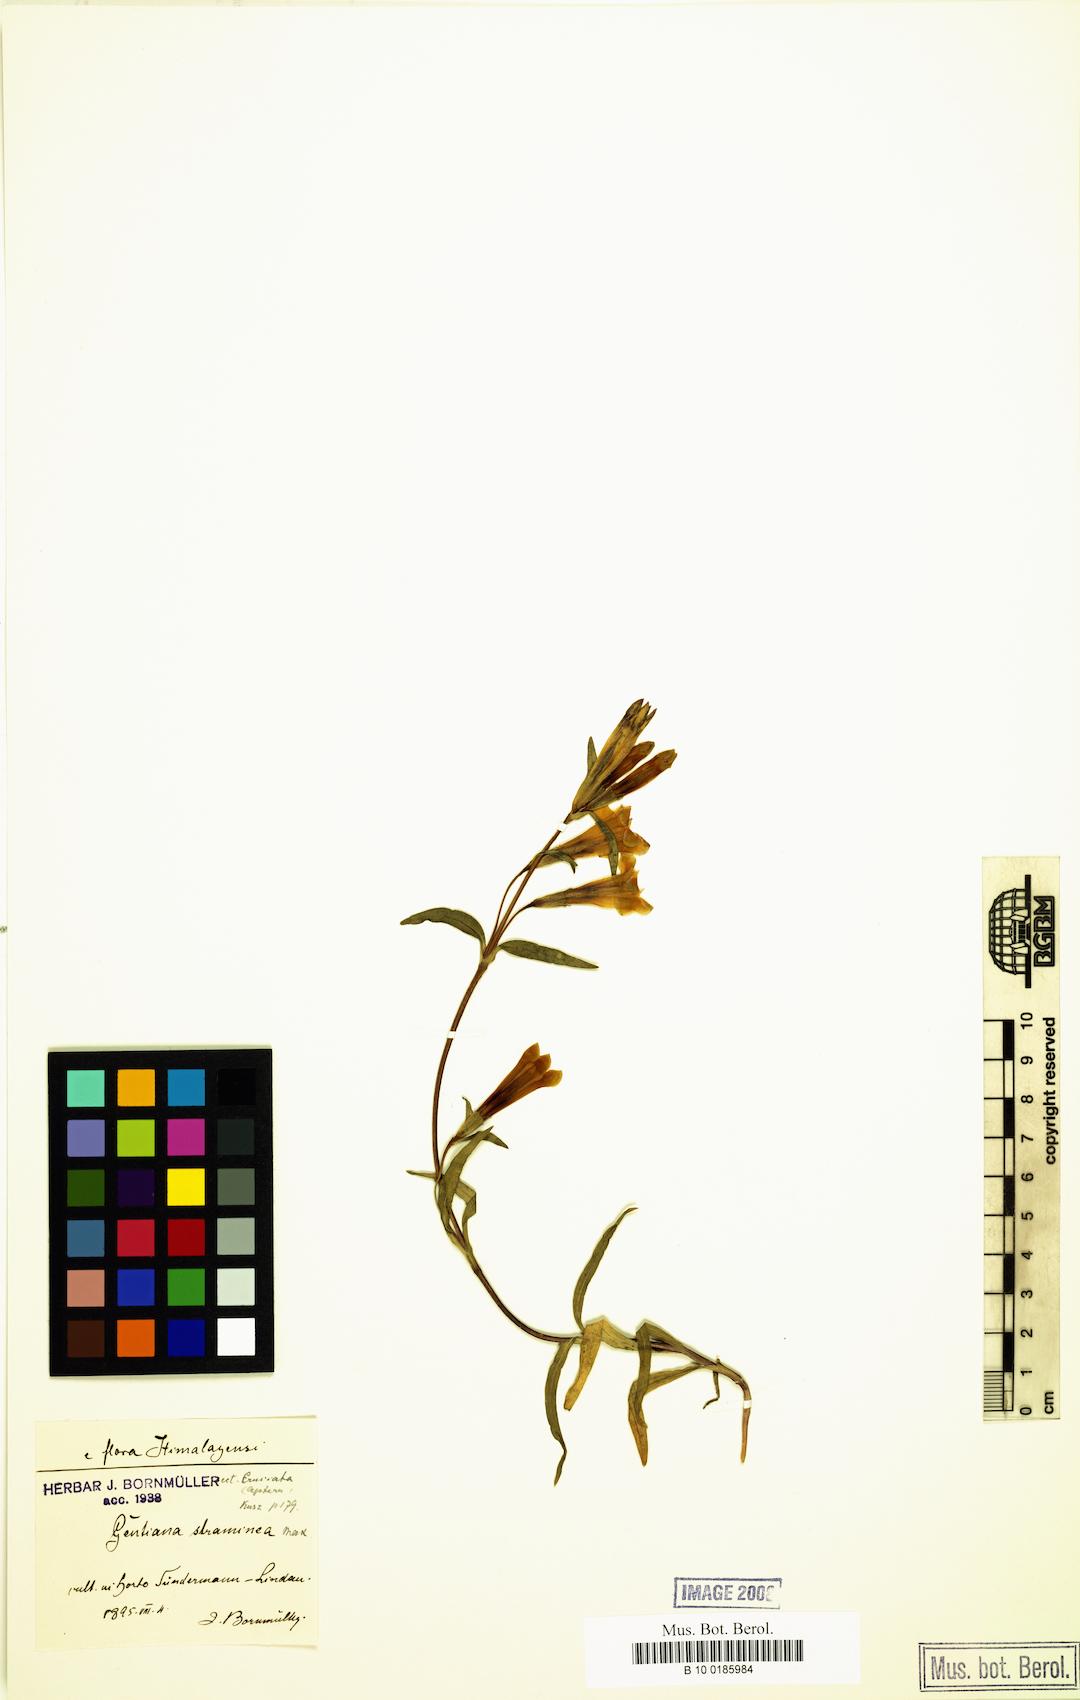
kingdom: Plantae
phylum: Tracheophyta
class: Magnoliopsida
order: Gentianales
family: Gentianaceae
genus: Gentiana
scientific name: Gentiana straminea
